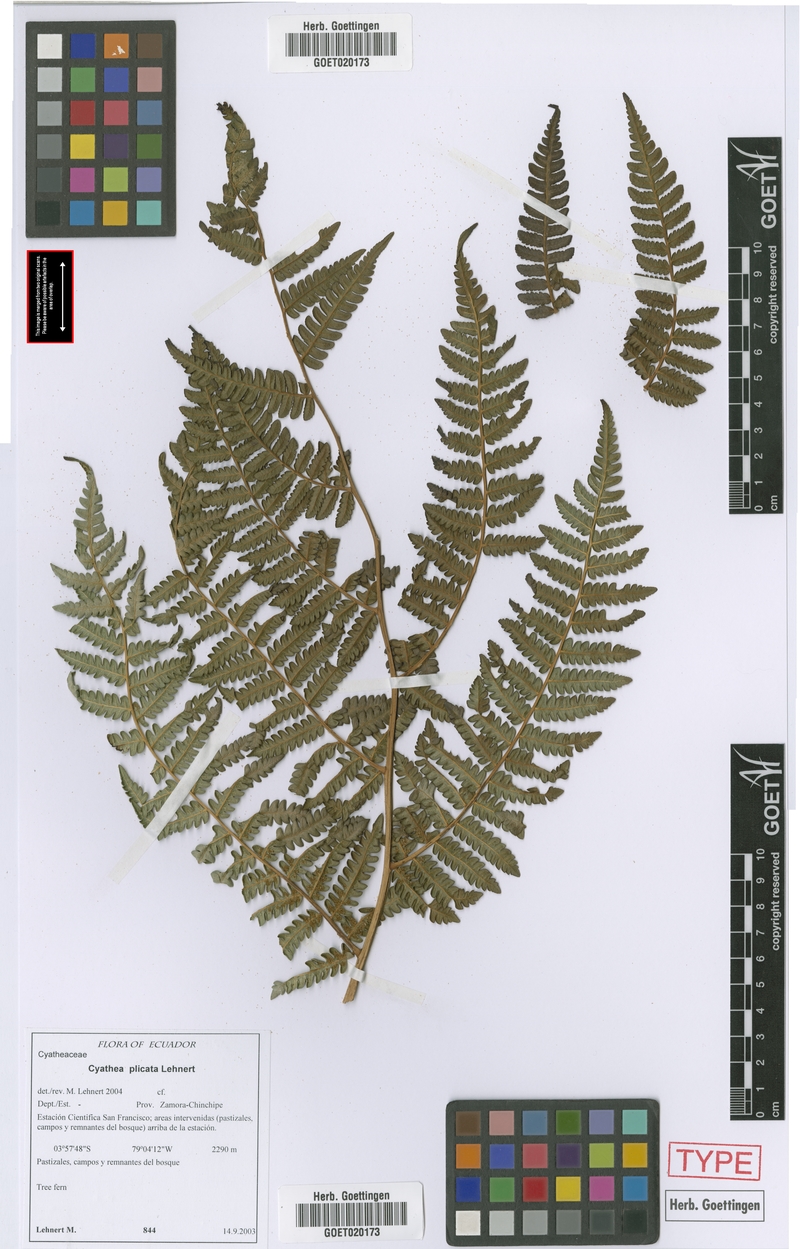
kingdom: Plantae
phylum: Tracheophyta
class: Polypodiopsida
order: Cyatheales
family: Cyatheaceae
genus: Cyathea
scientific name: Cyathea plicata
